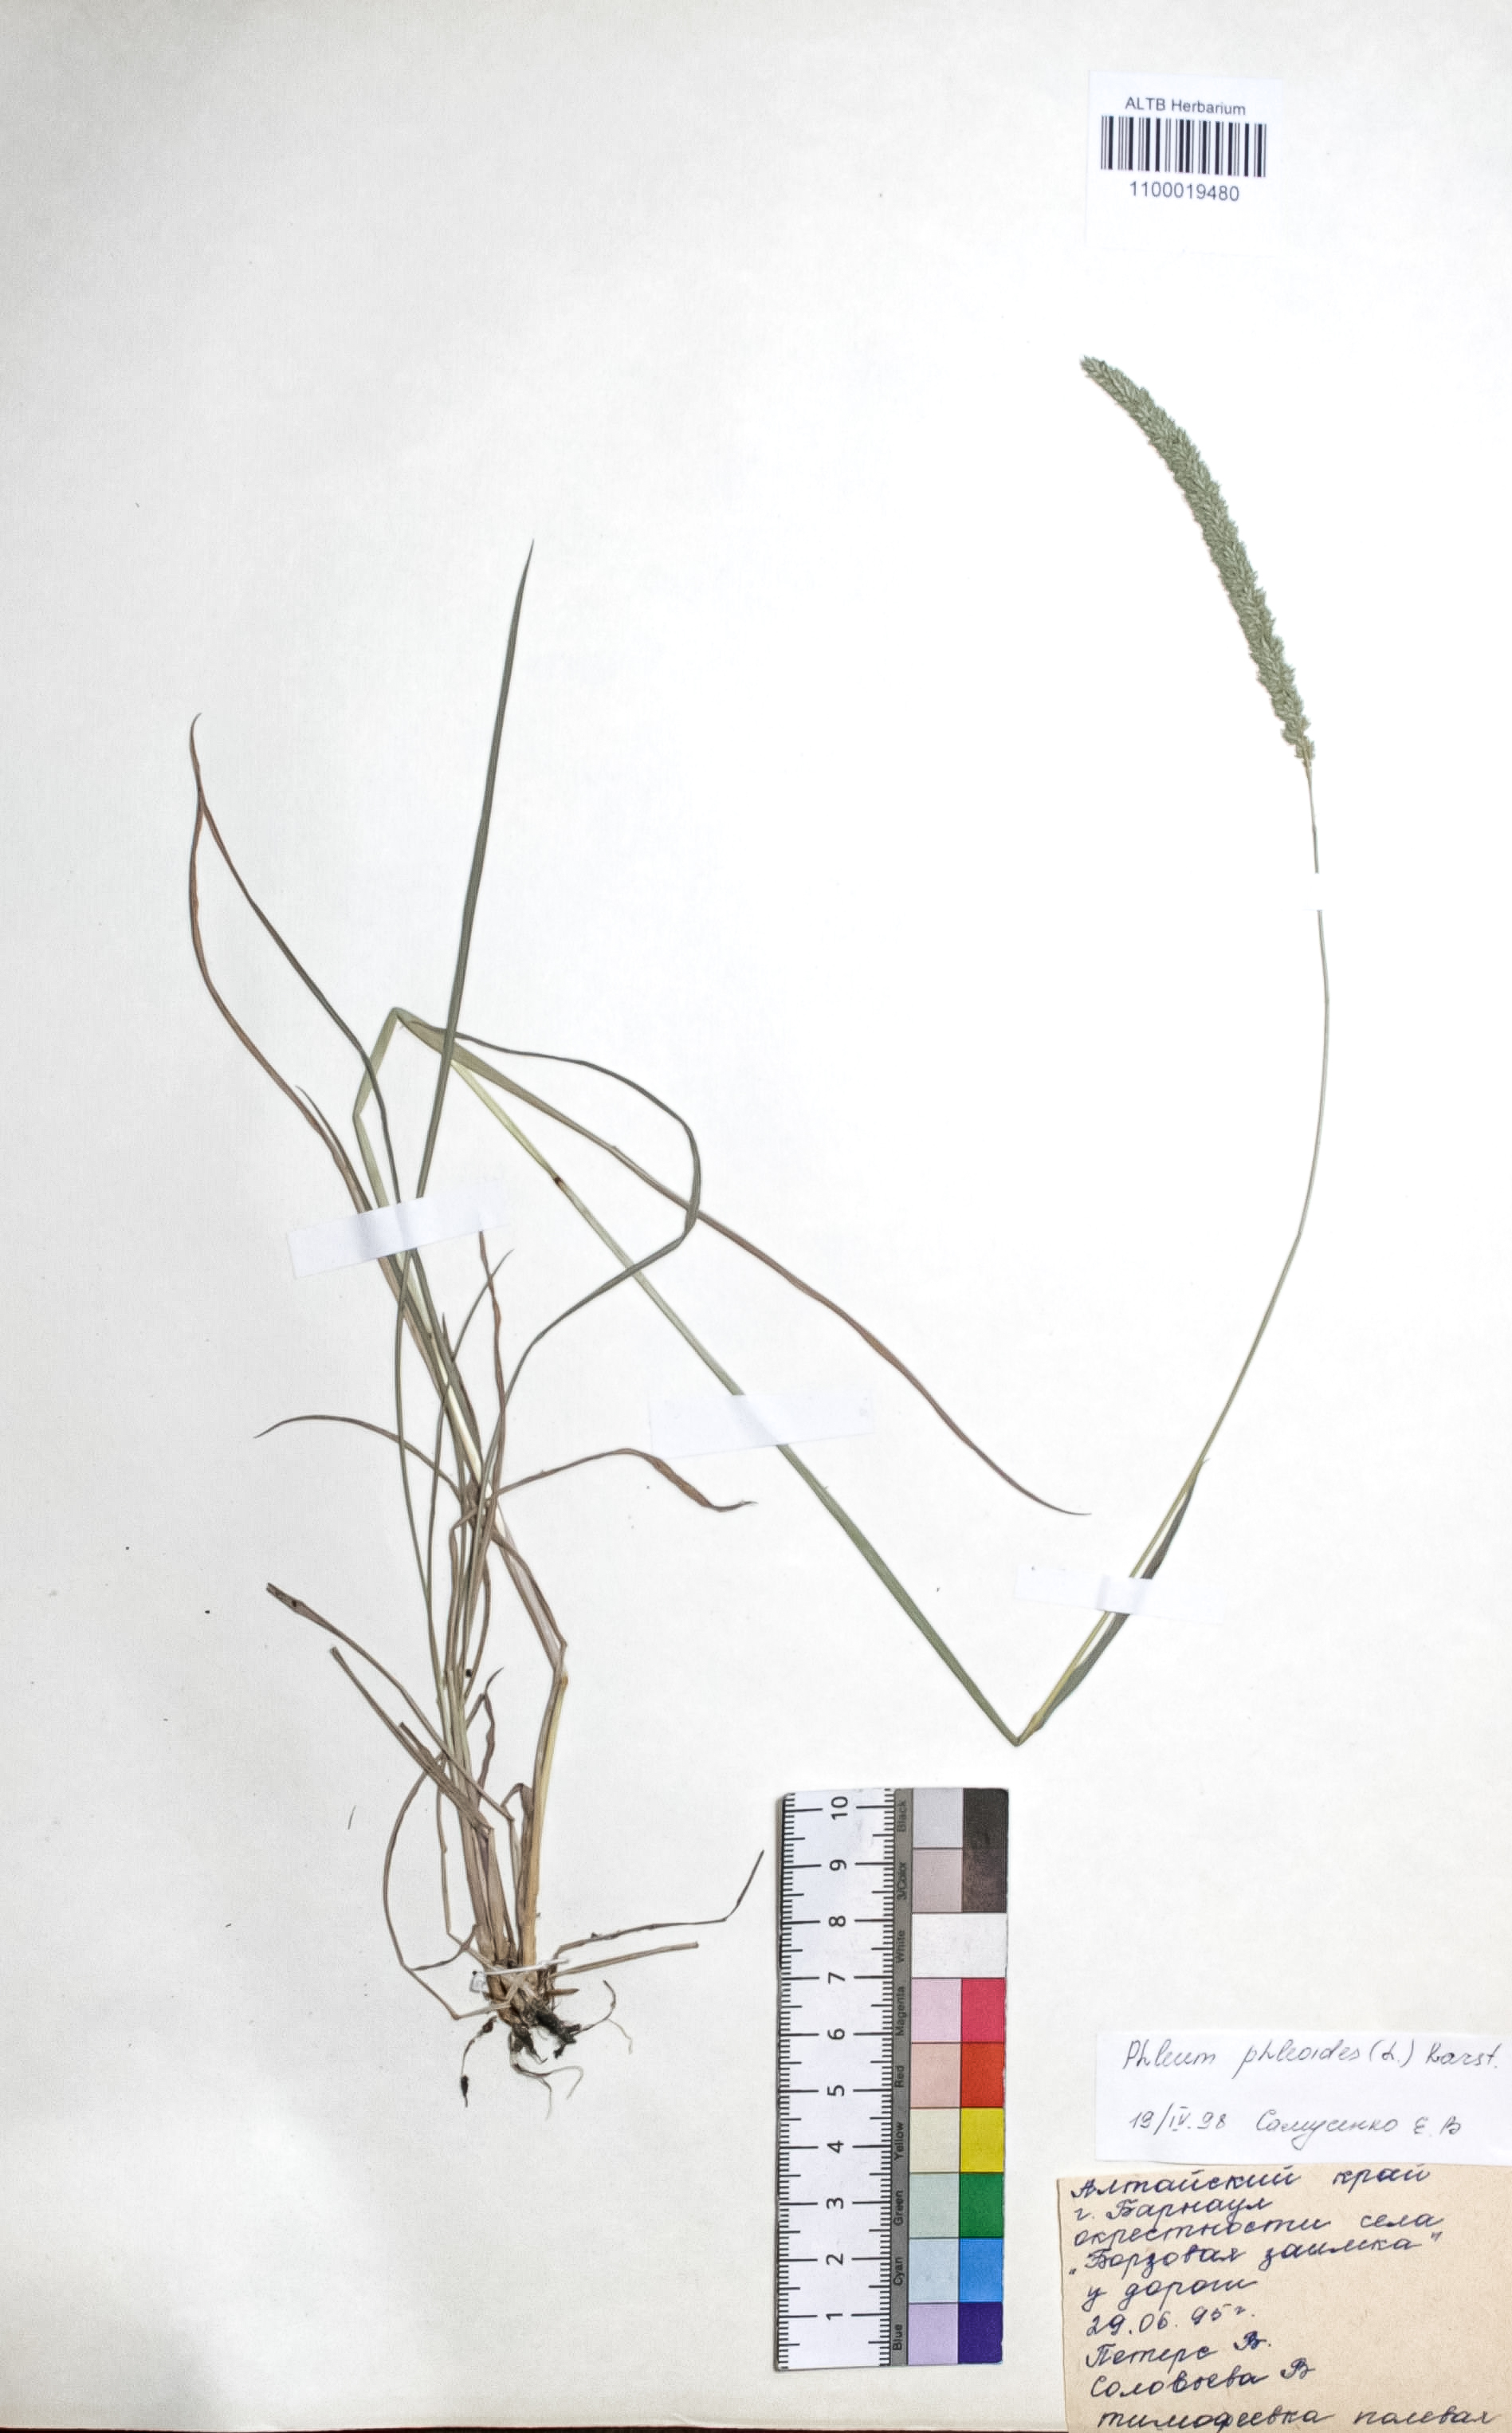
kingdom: Plantae
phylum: Tracheophyta
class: Liliopsida
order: Poales
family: Poaceae
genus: Phleum
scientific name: Phleum phleoides
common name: Purple-stem cat's-tail
